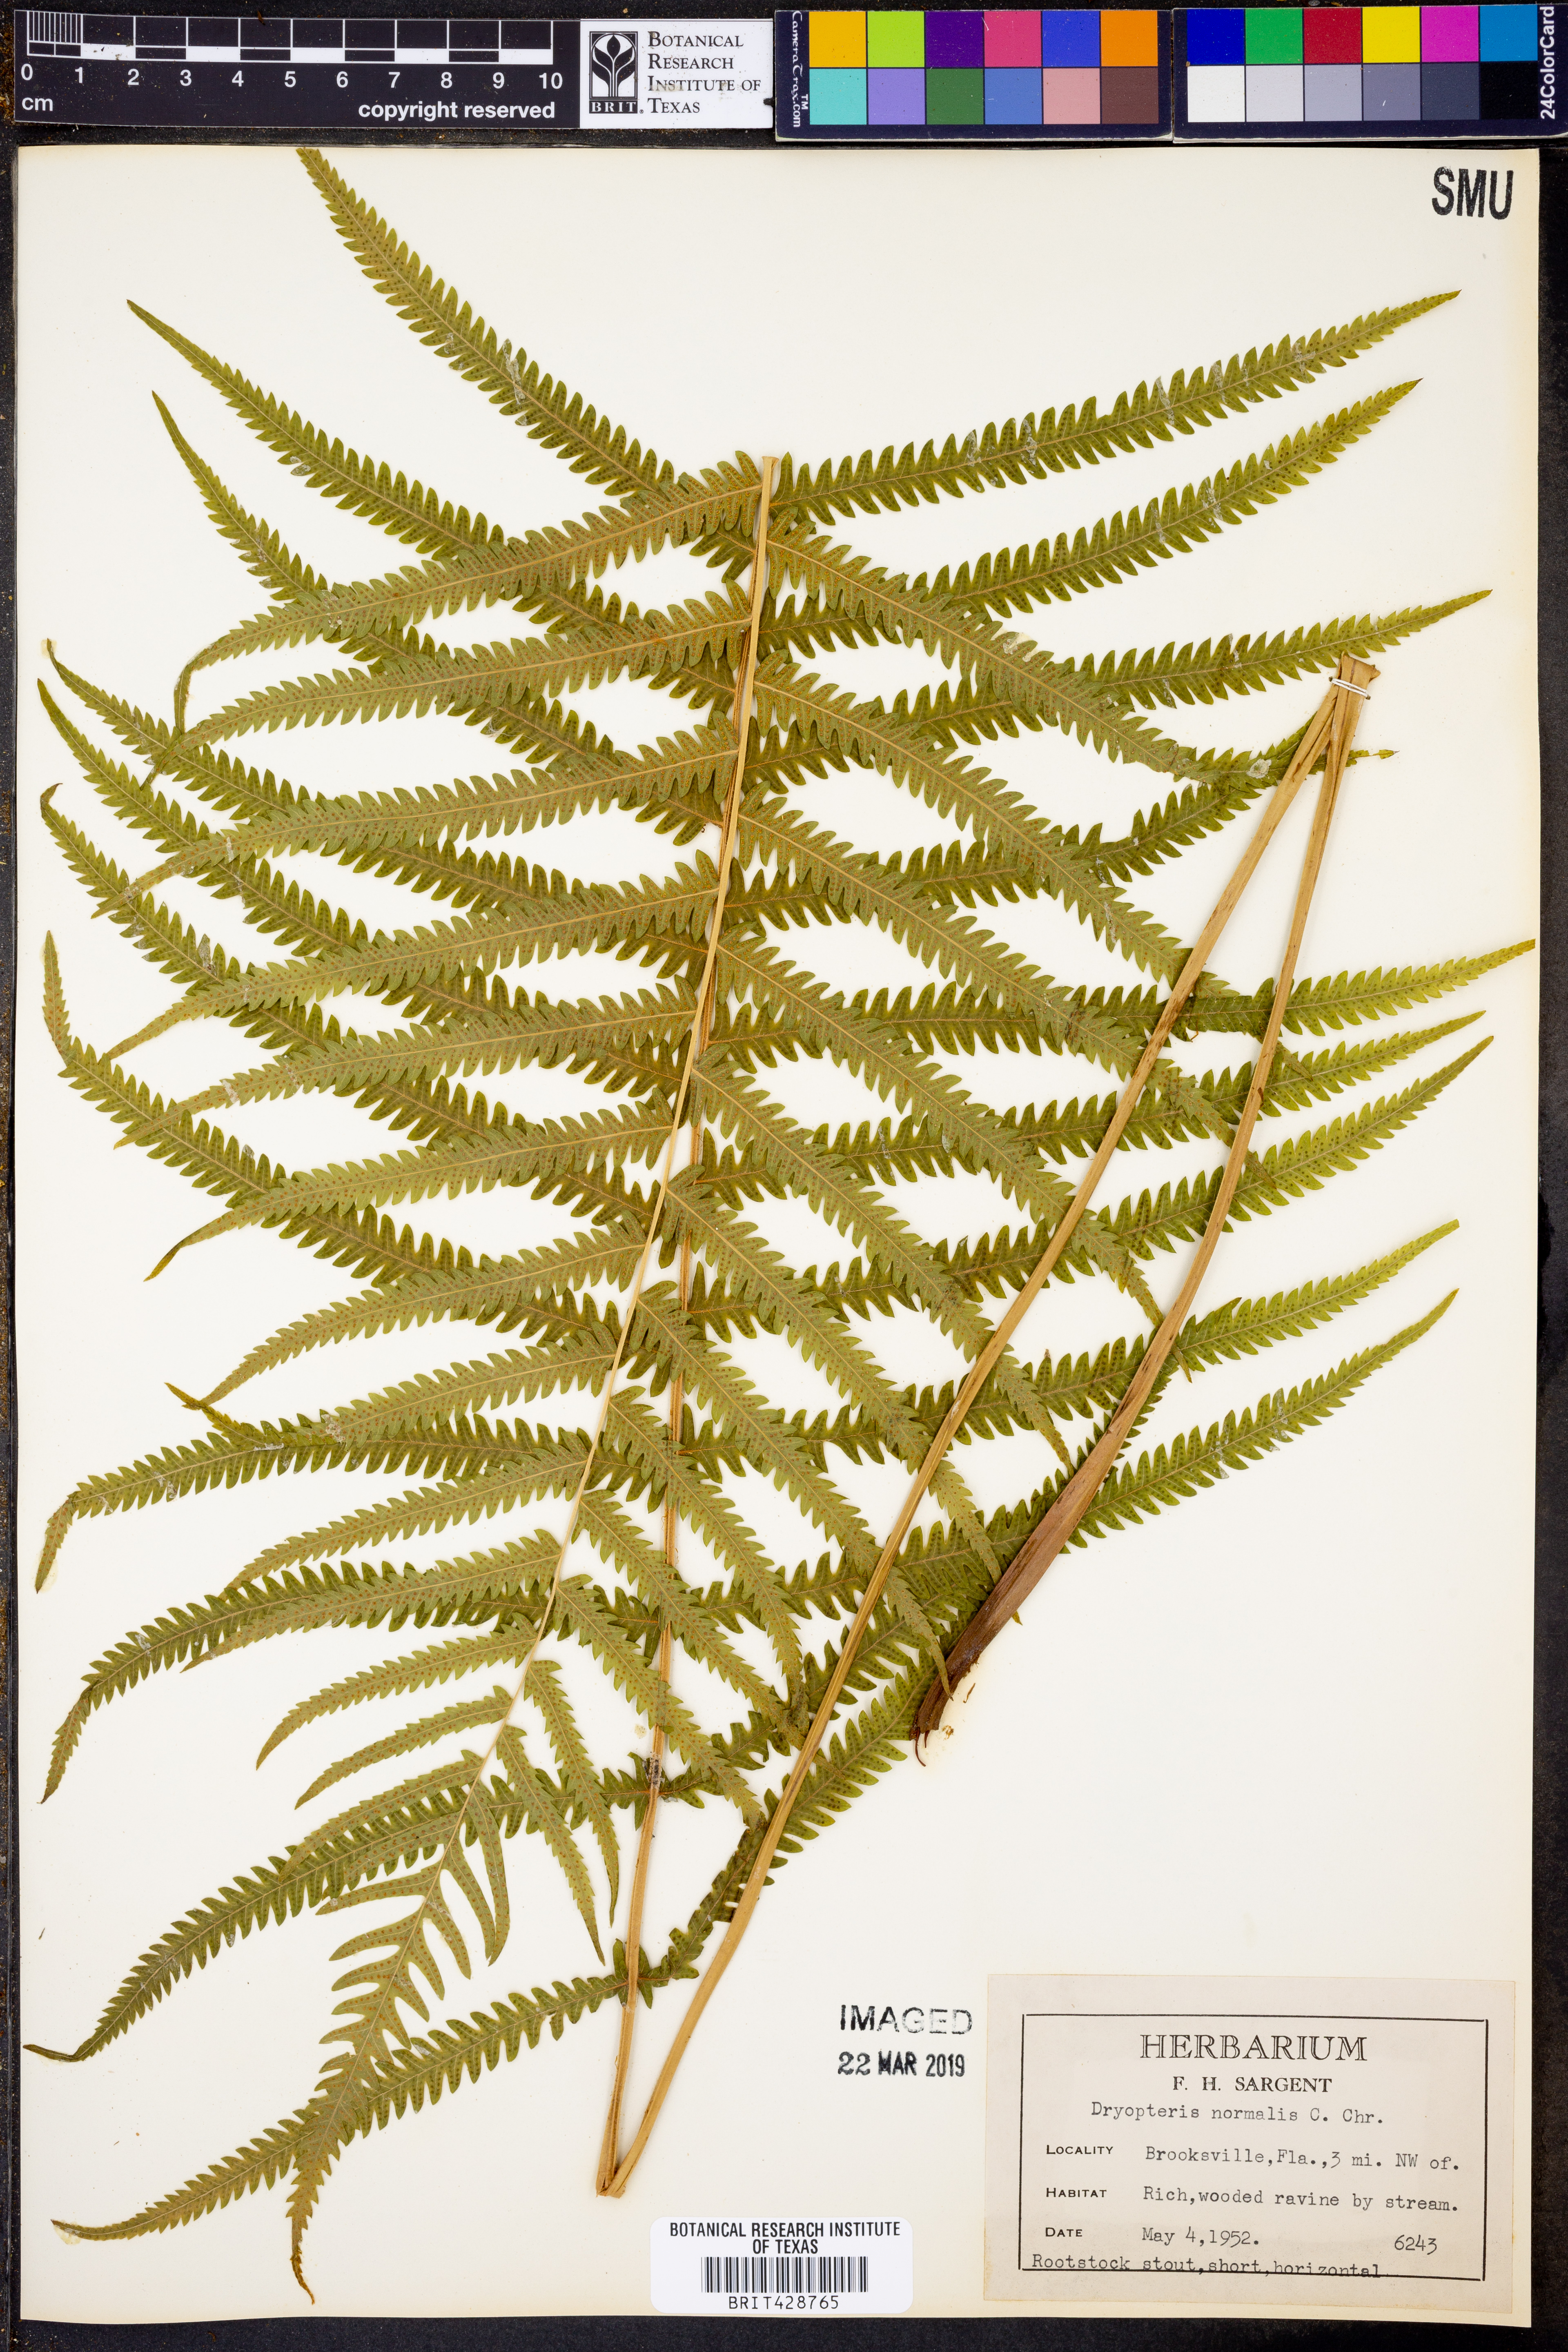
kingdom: Plantae
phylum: Tracheophyta
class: Polypodiopsida
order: Polypodiales
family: Thelypteridaceae
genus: Pelazoneuron
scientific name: Pelazoneuron kunthii
